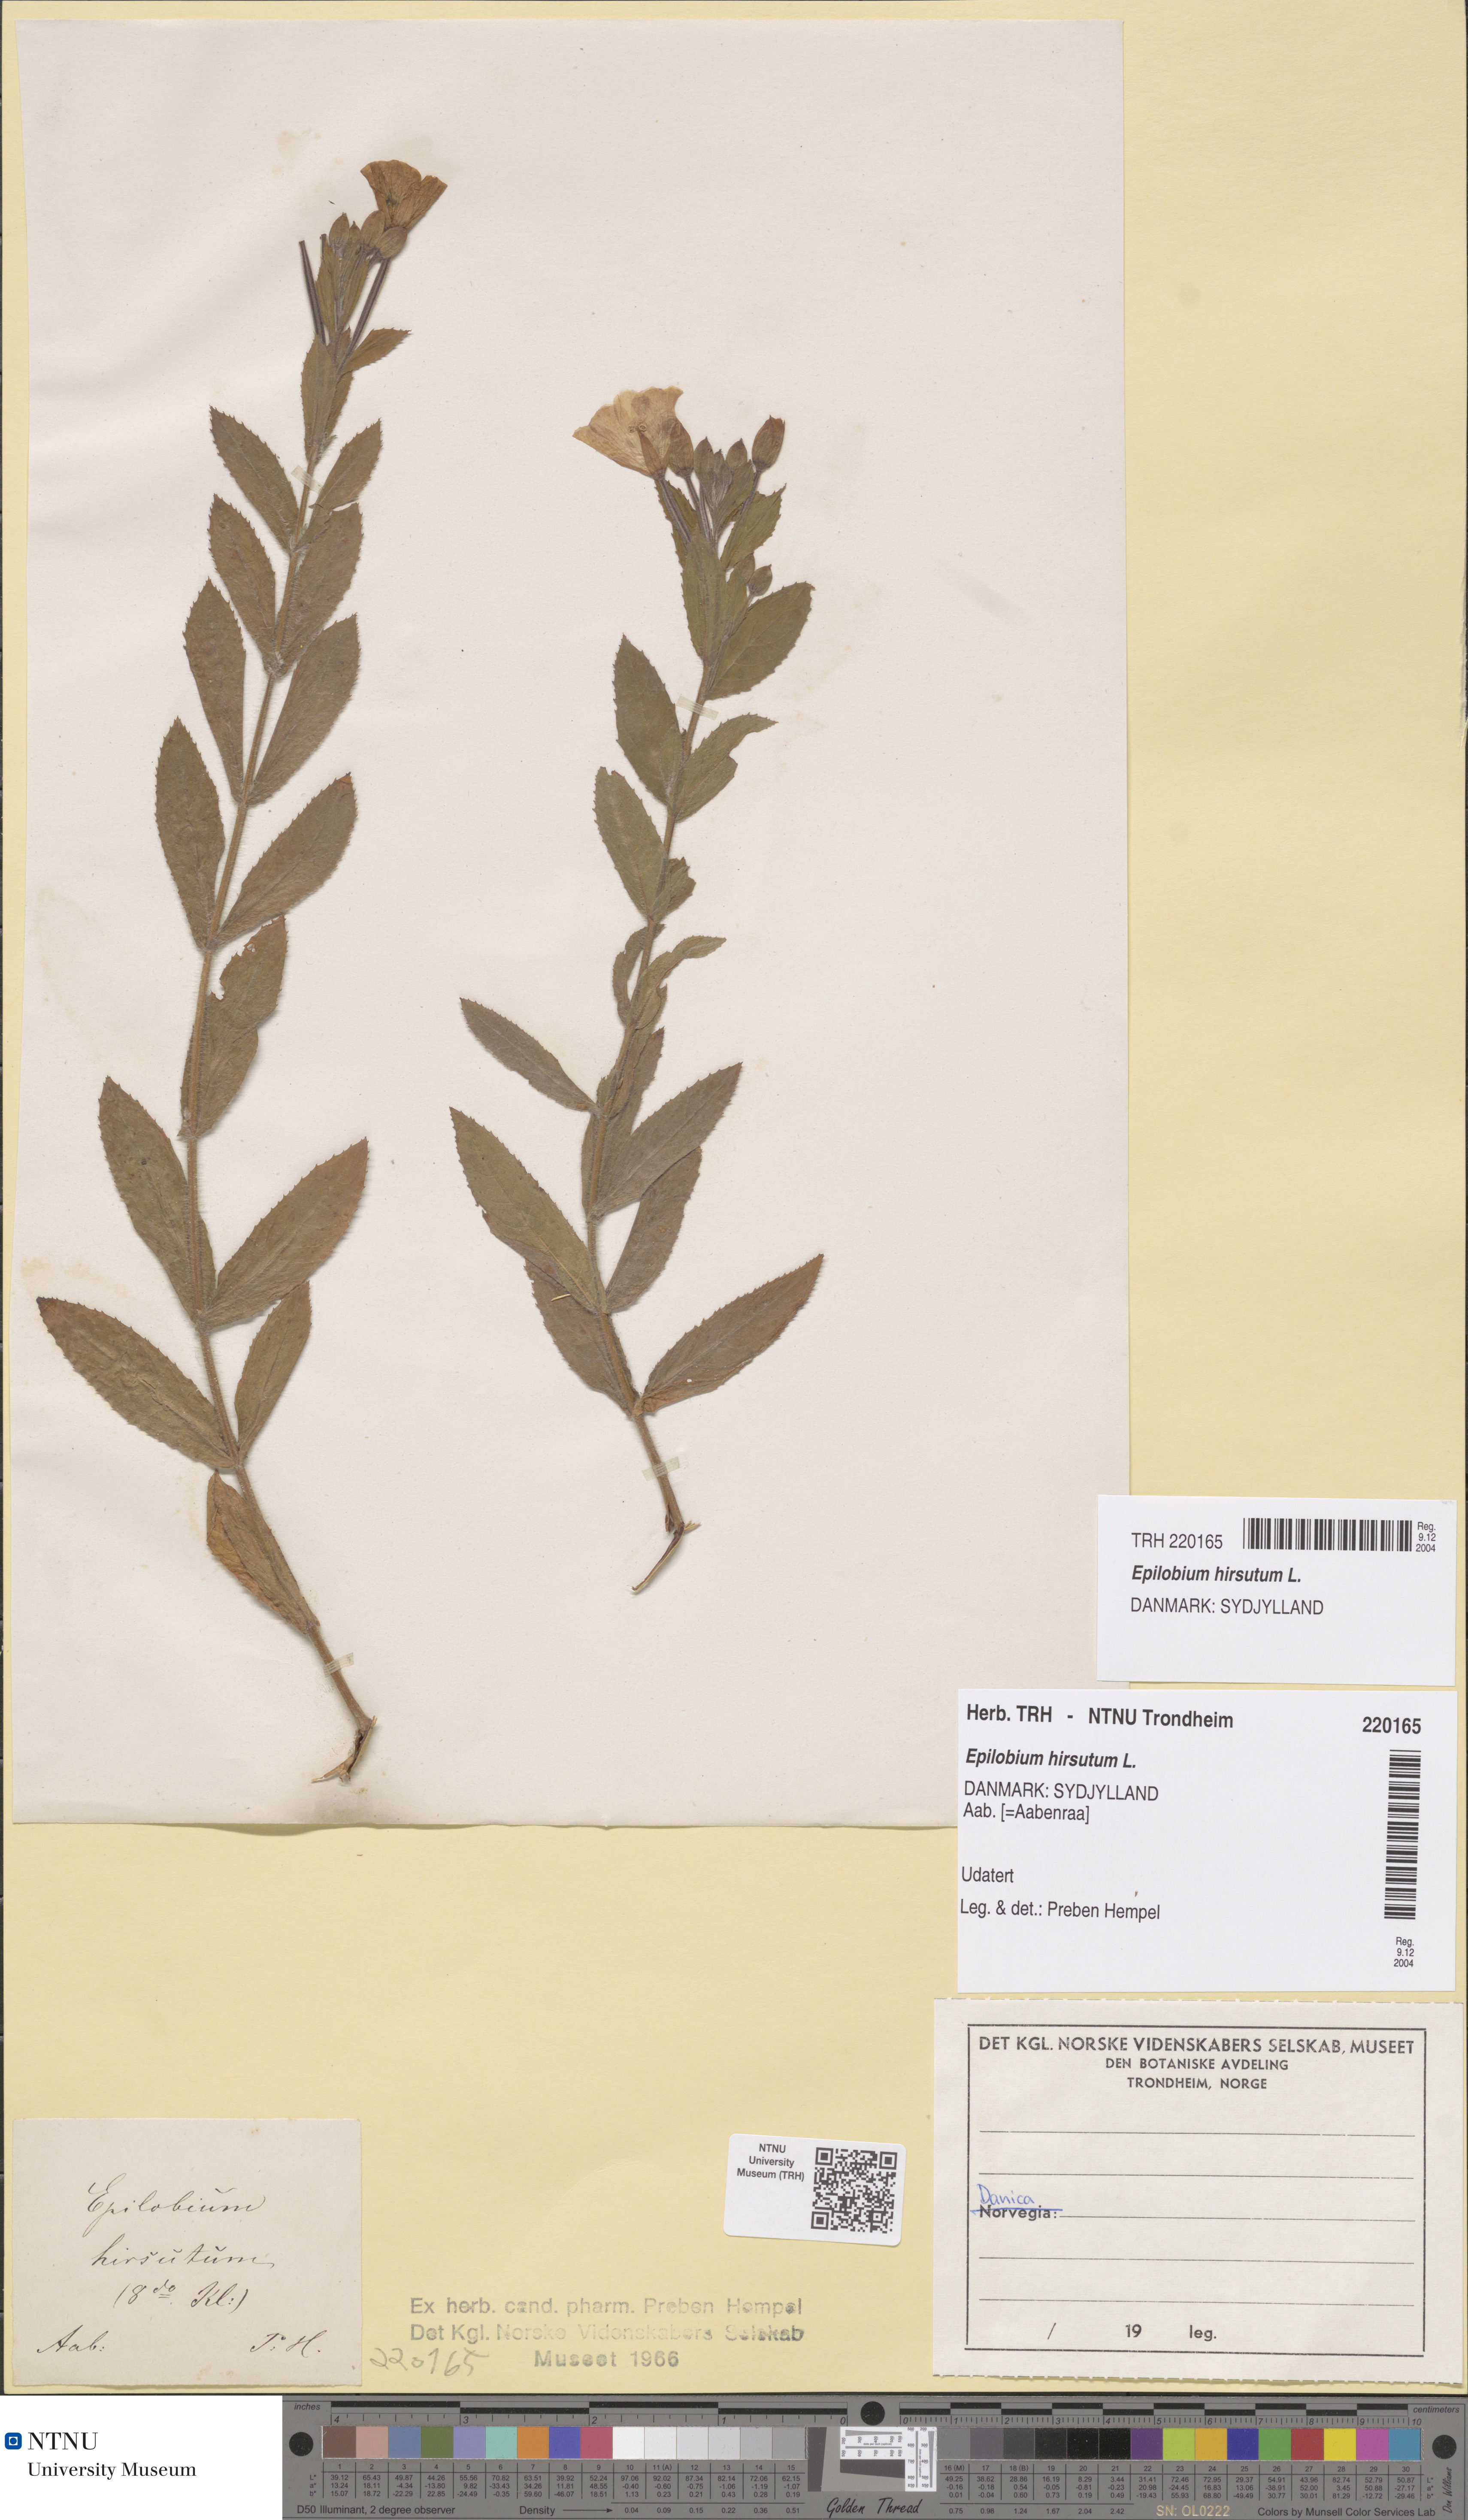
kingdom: Plantae
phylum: Tracheophyta
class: Magnoliopsida
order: Myrtales
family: Onagraceae
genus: Epilobium
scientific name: Epilobium hirsutum
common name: Great willowherb
